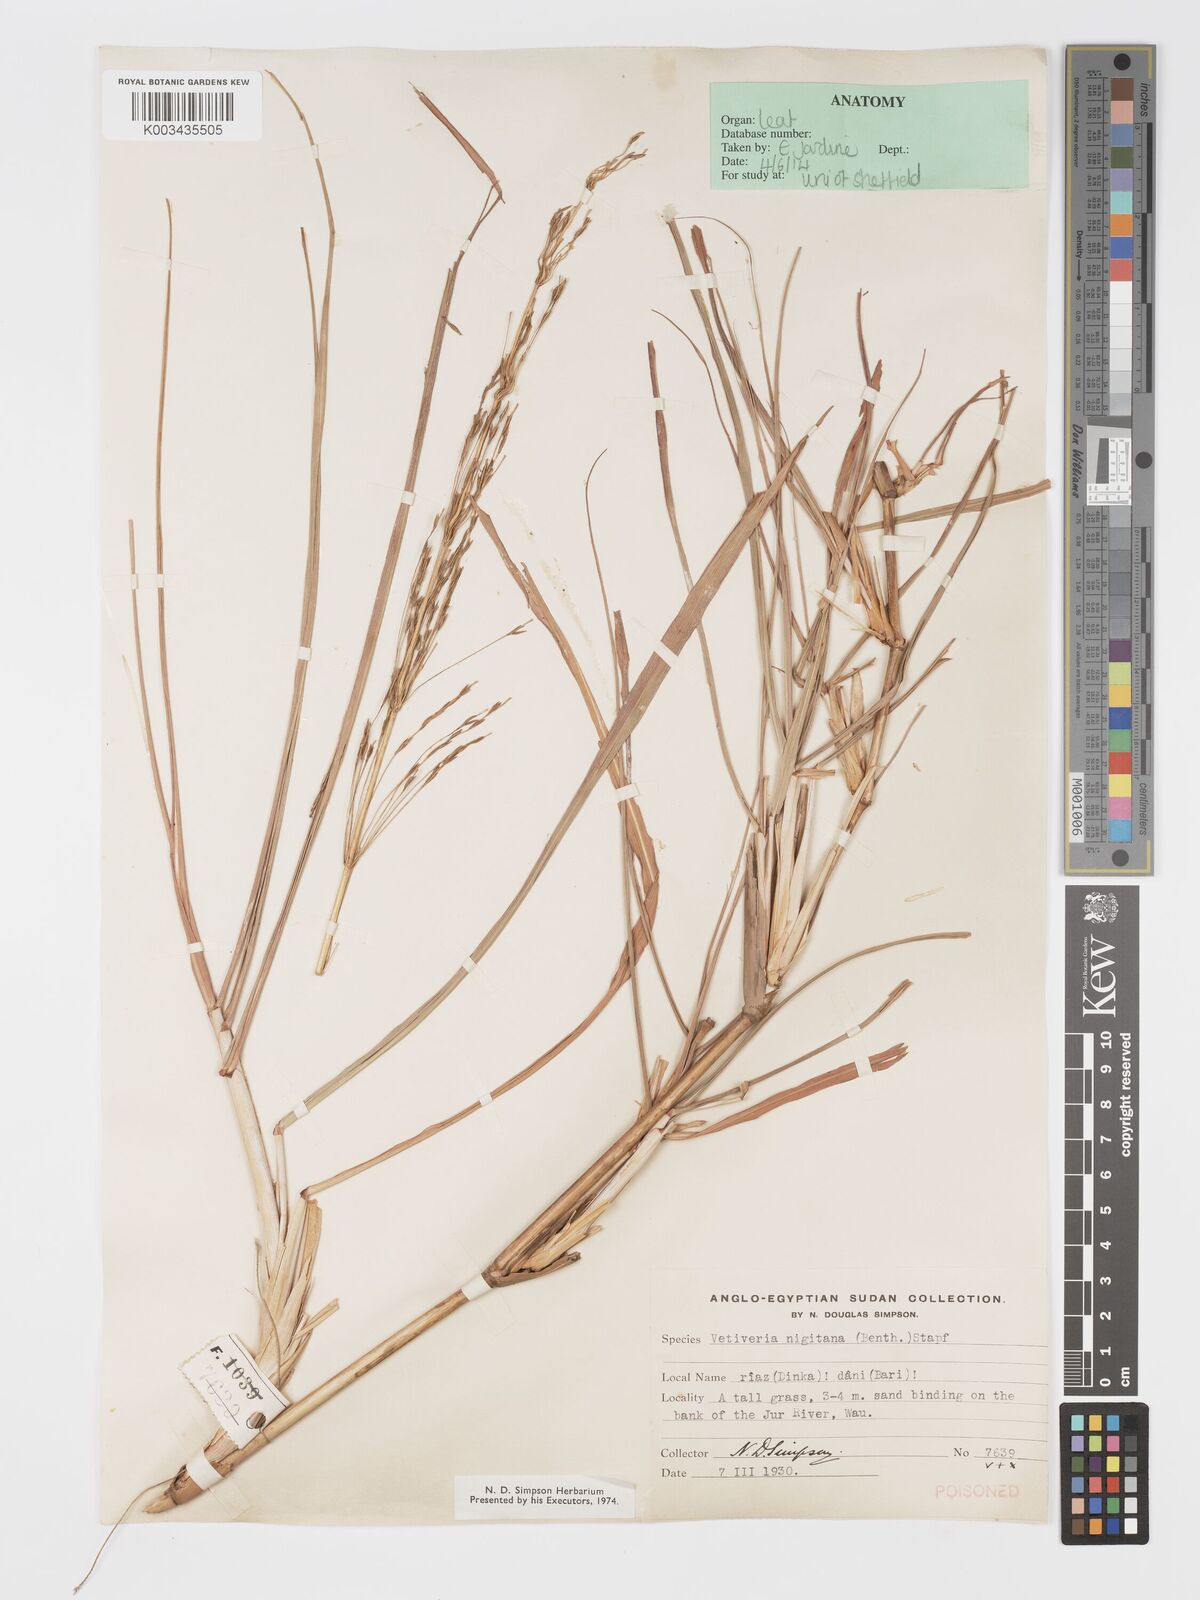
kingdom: Plantae
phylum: Tracheophyta
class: Liliopsida
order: Poales
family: Poaceae
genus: Chrysopogon
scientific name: Chrysopogon nigritanus
